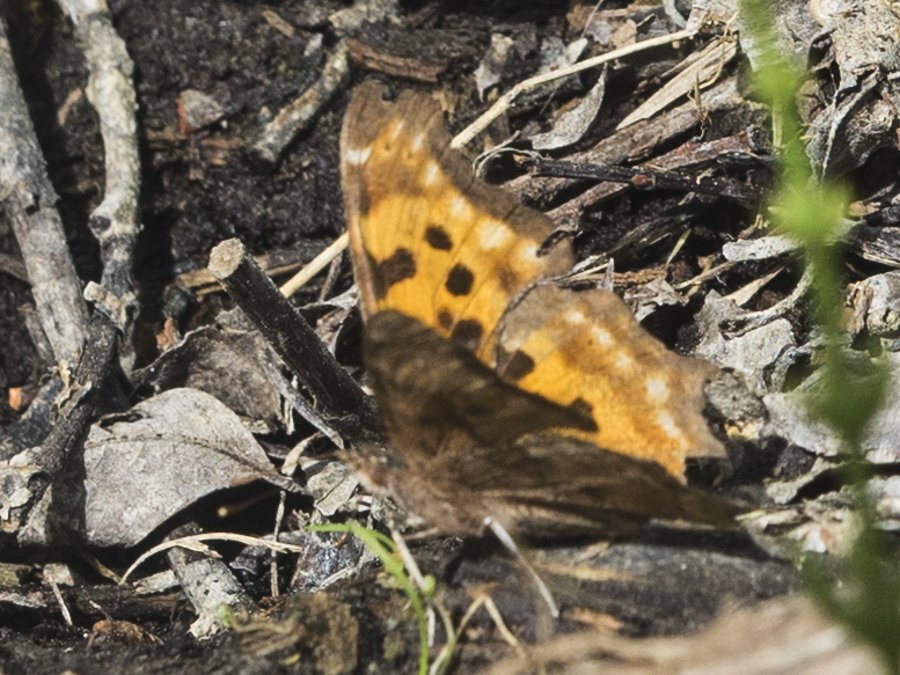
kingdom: Animalia
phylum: Arthropoda
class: Insecta
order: Lepidoptera
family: Nymphalidae
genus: Polygonia
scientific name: Polygonia satyrus
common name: Satyr Comma
